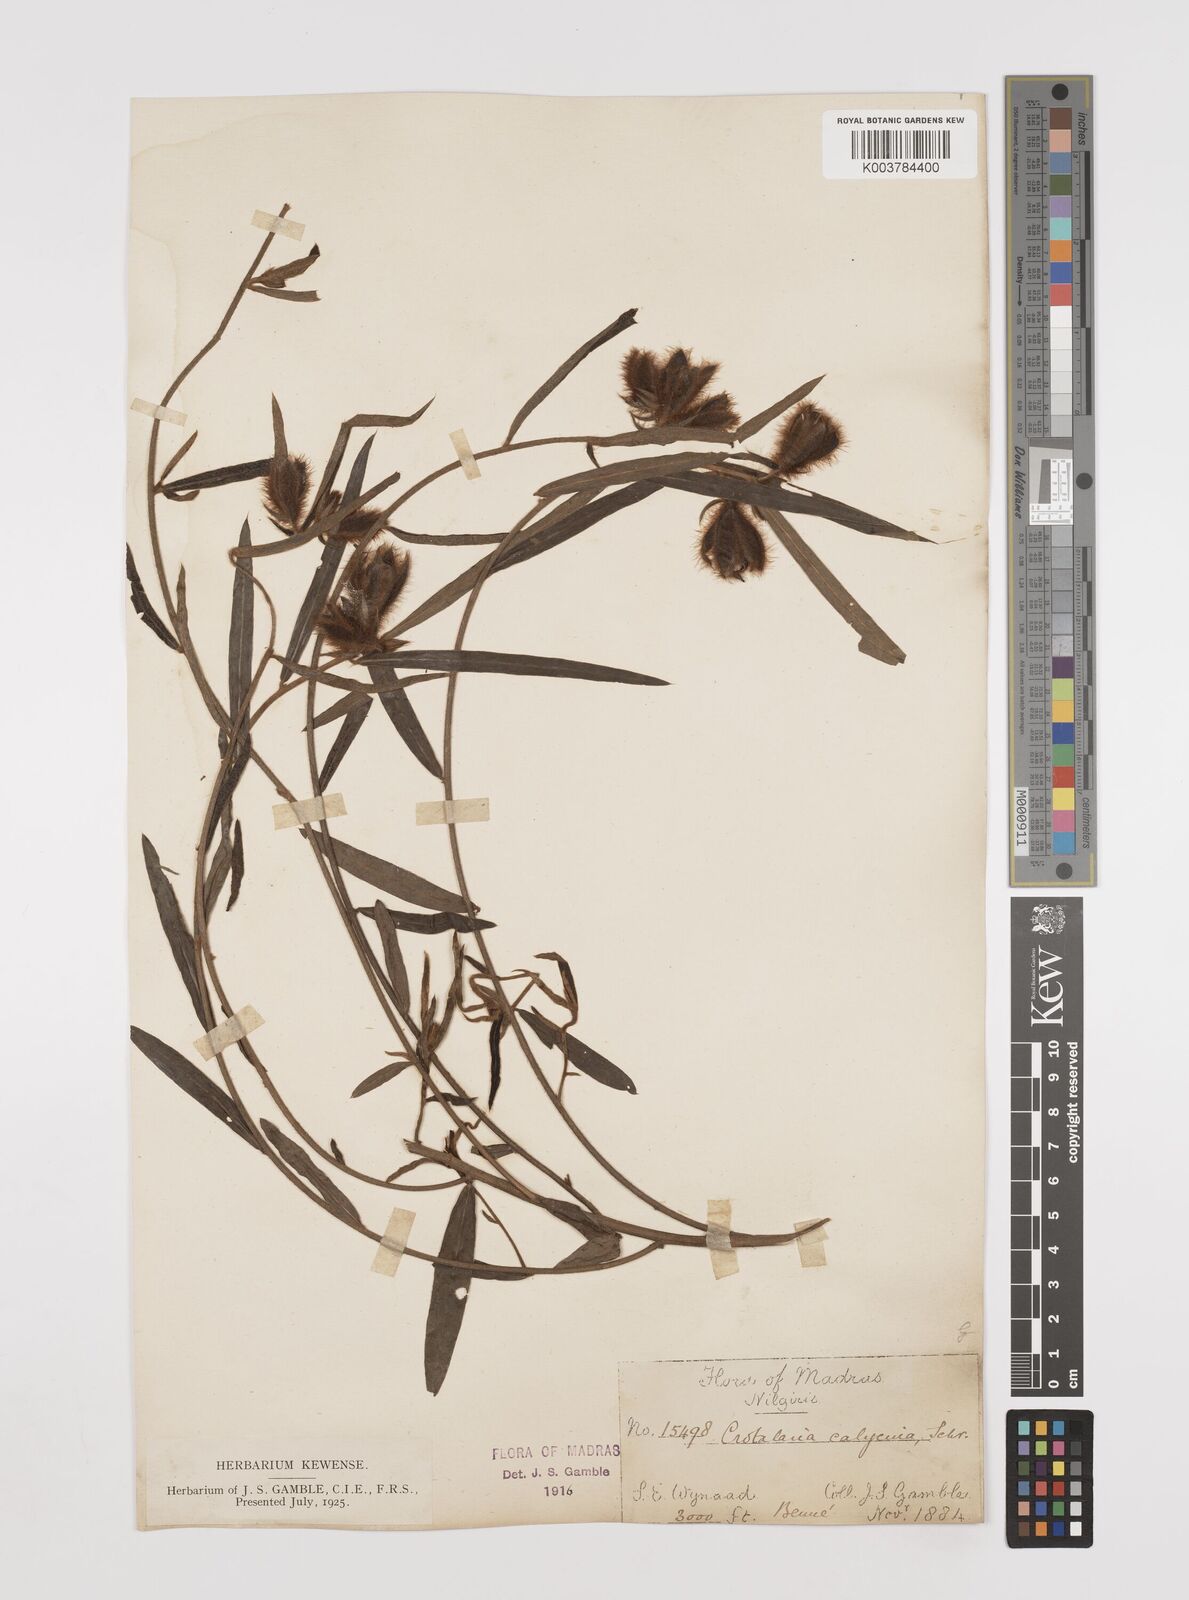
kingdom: Plantae
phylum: Tracheophyta
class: Magnoliopsida
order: Fabales
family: Fabaceae
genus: Crotalaria
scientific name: Crotalaria calycina
